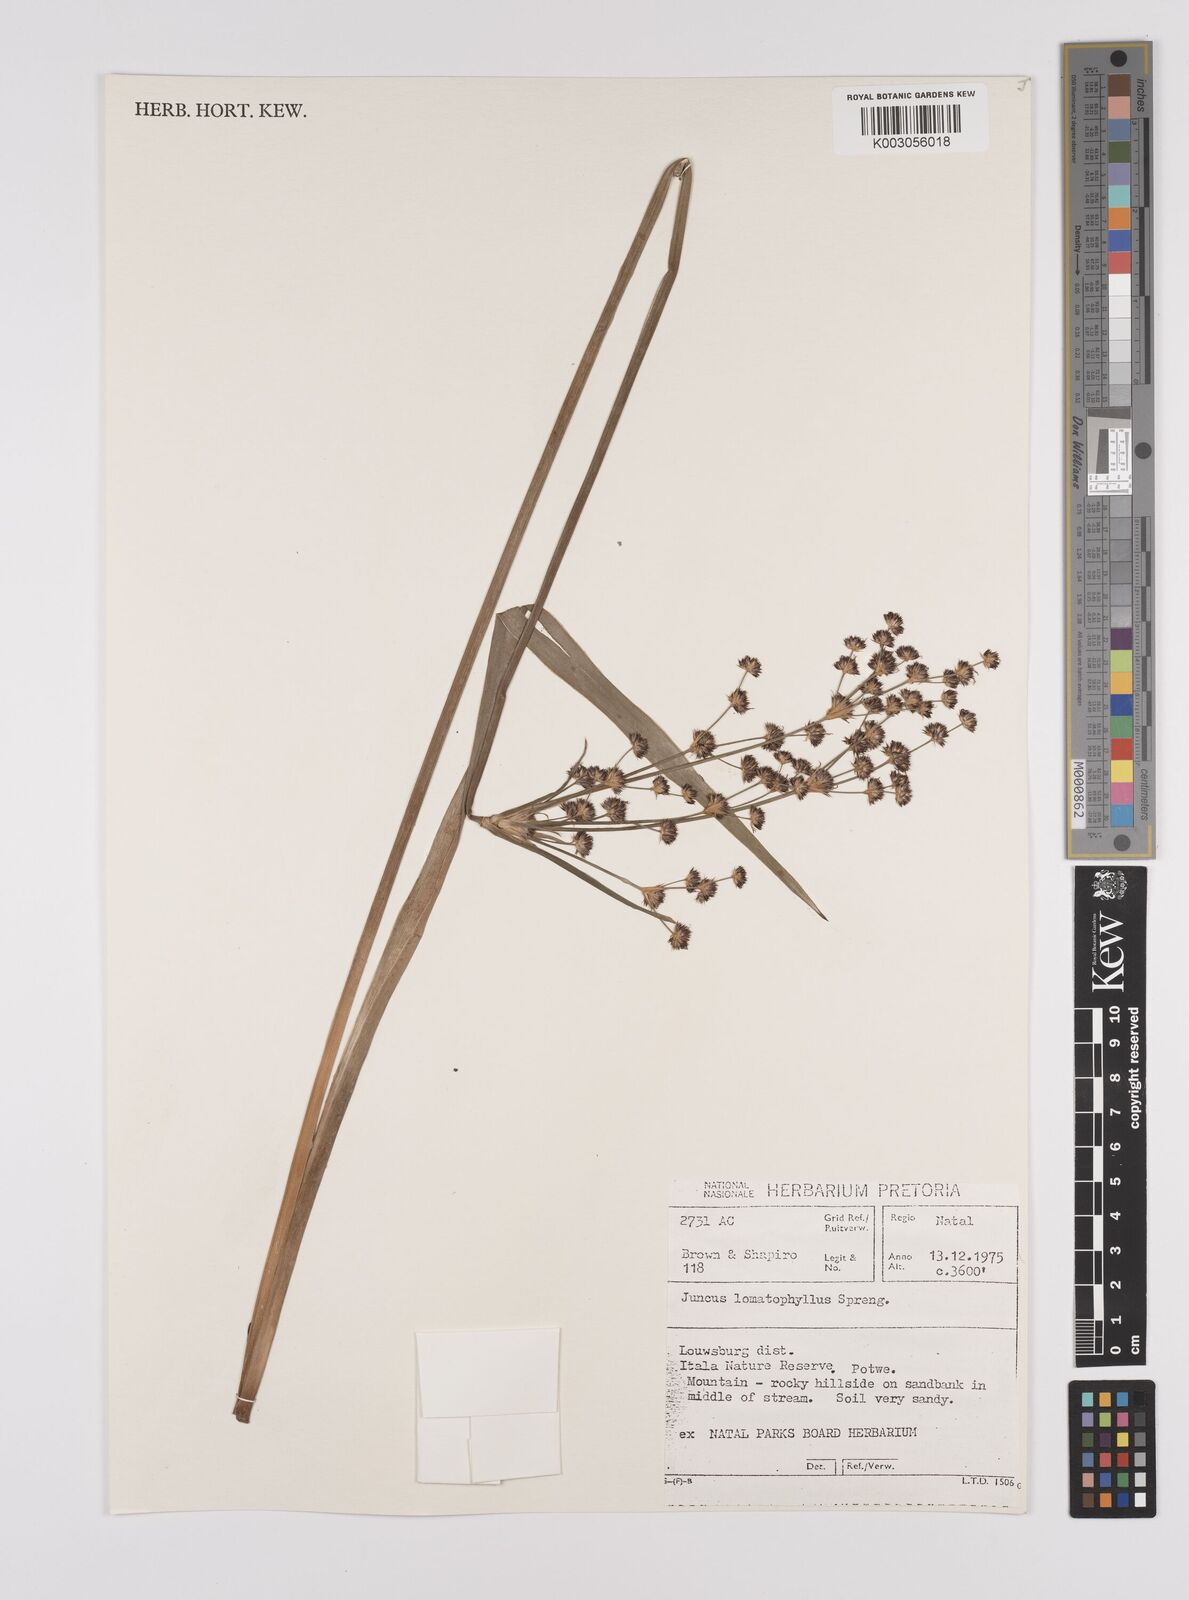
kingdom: Plantae
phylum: Tracheophyta
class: Liliopsida
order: Poales
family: Juncaceae
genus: Juncus
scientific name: Juncus lomatophyllus
